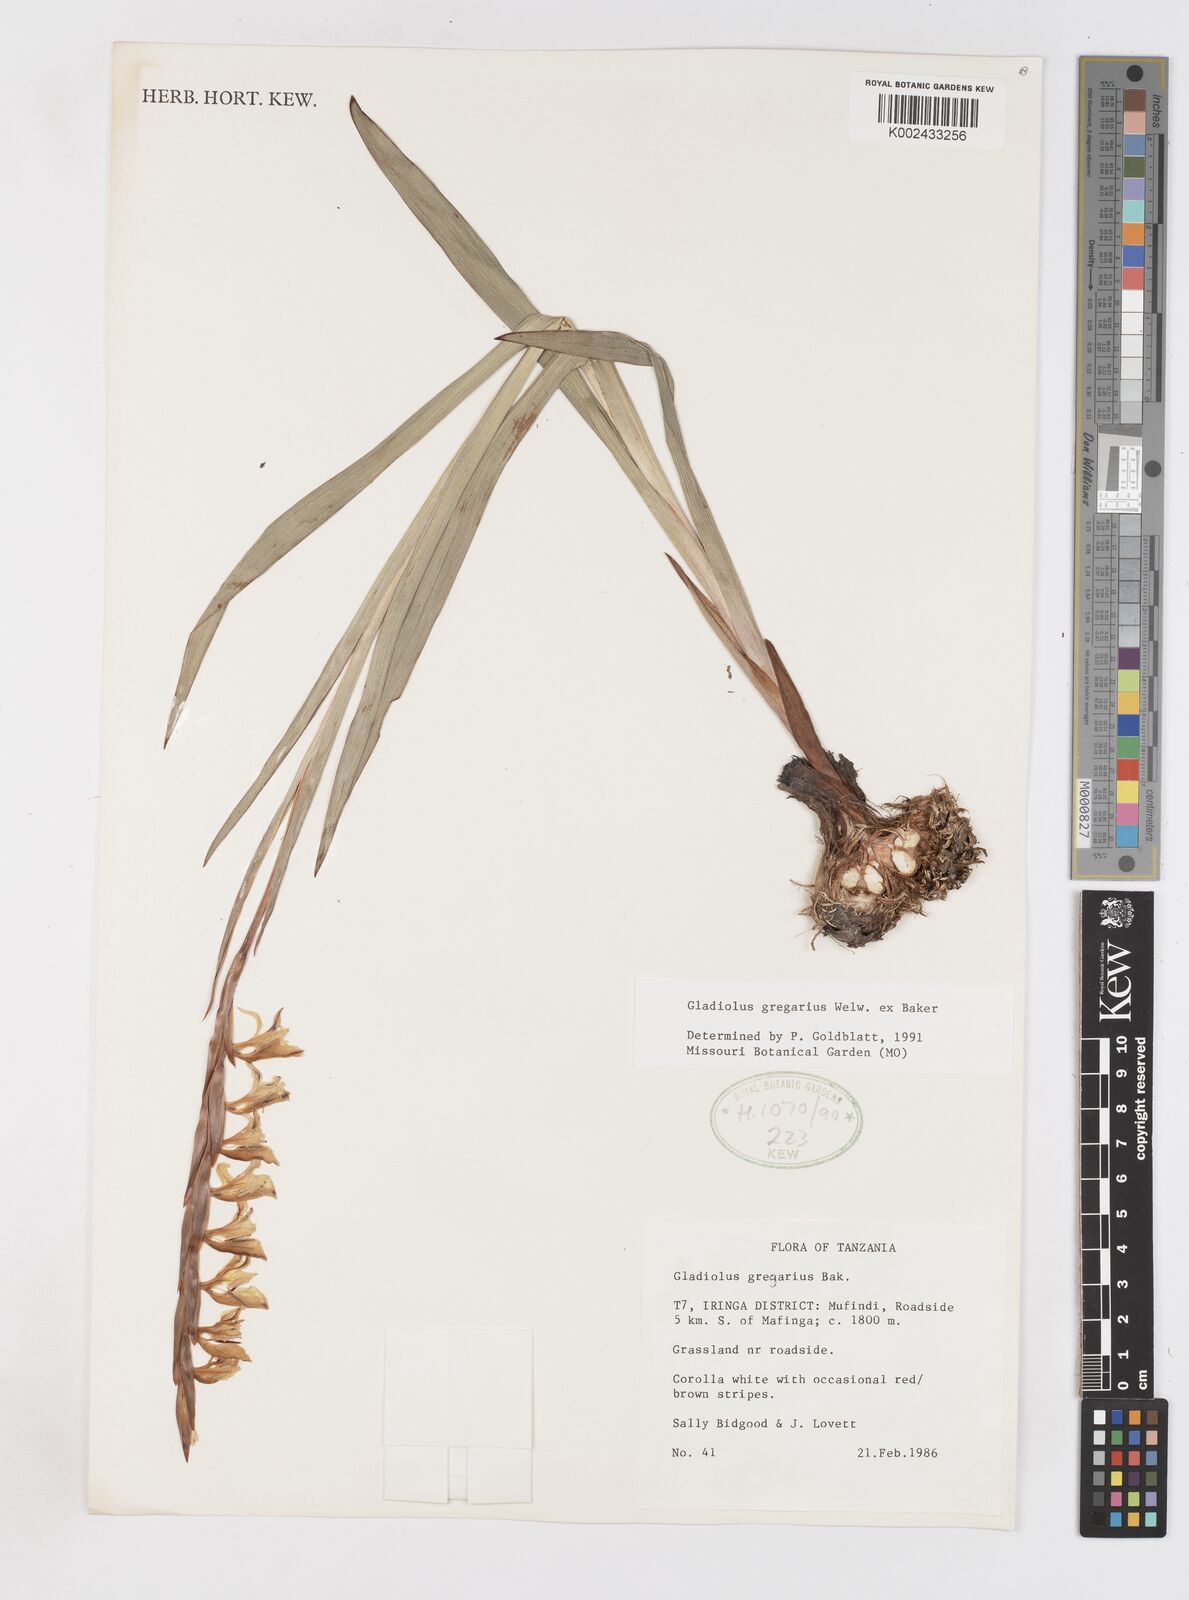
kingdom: Plantae
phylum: Tracheophyta
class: Liliopsida
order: Asparagales
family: Iridaceae
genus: Gladiolus
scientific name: Gladiolus gregarius
